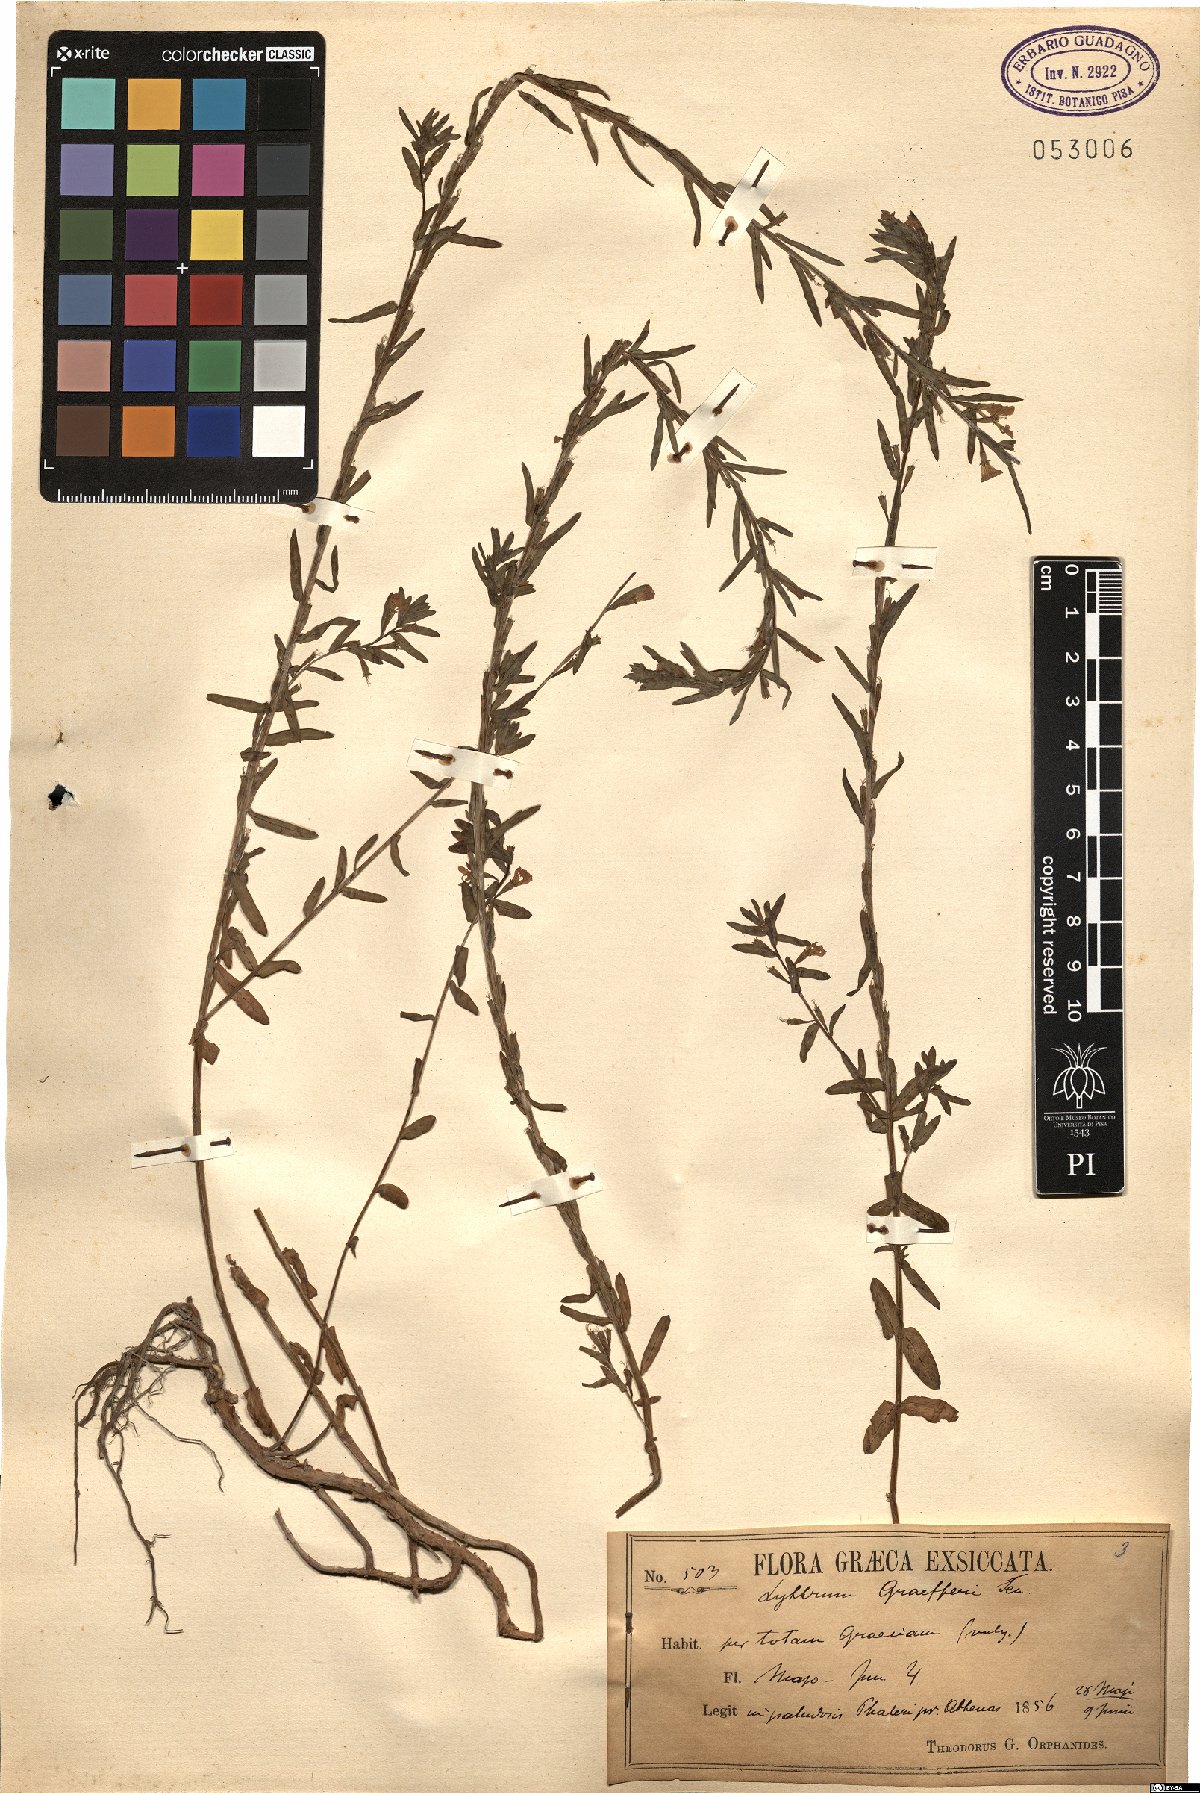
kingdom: Plantae
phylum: Tracheophyta
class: Magnoliopsida
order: Myrtales
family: Lythraceae
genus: Lythrum
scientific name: Lythrum junceum
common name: False grass-poly
